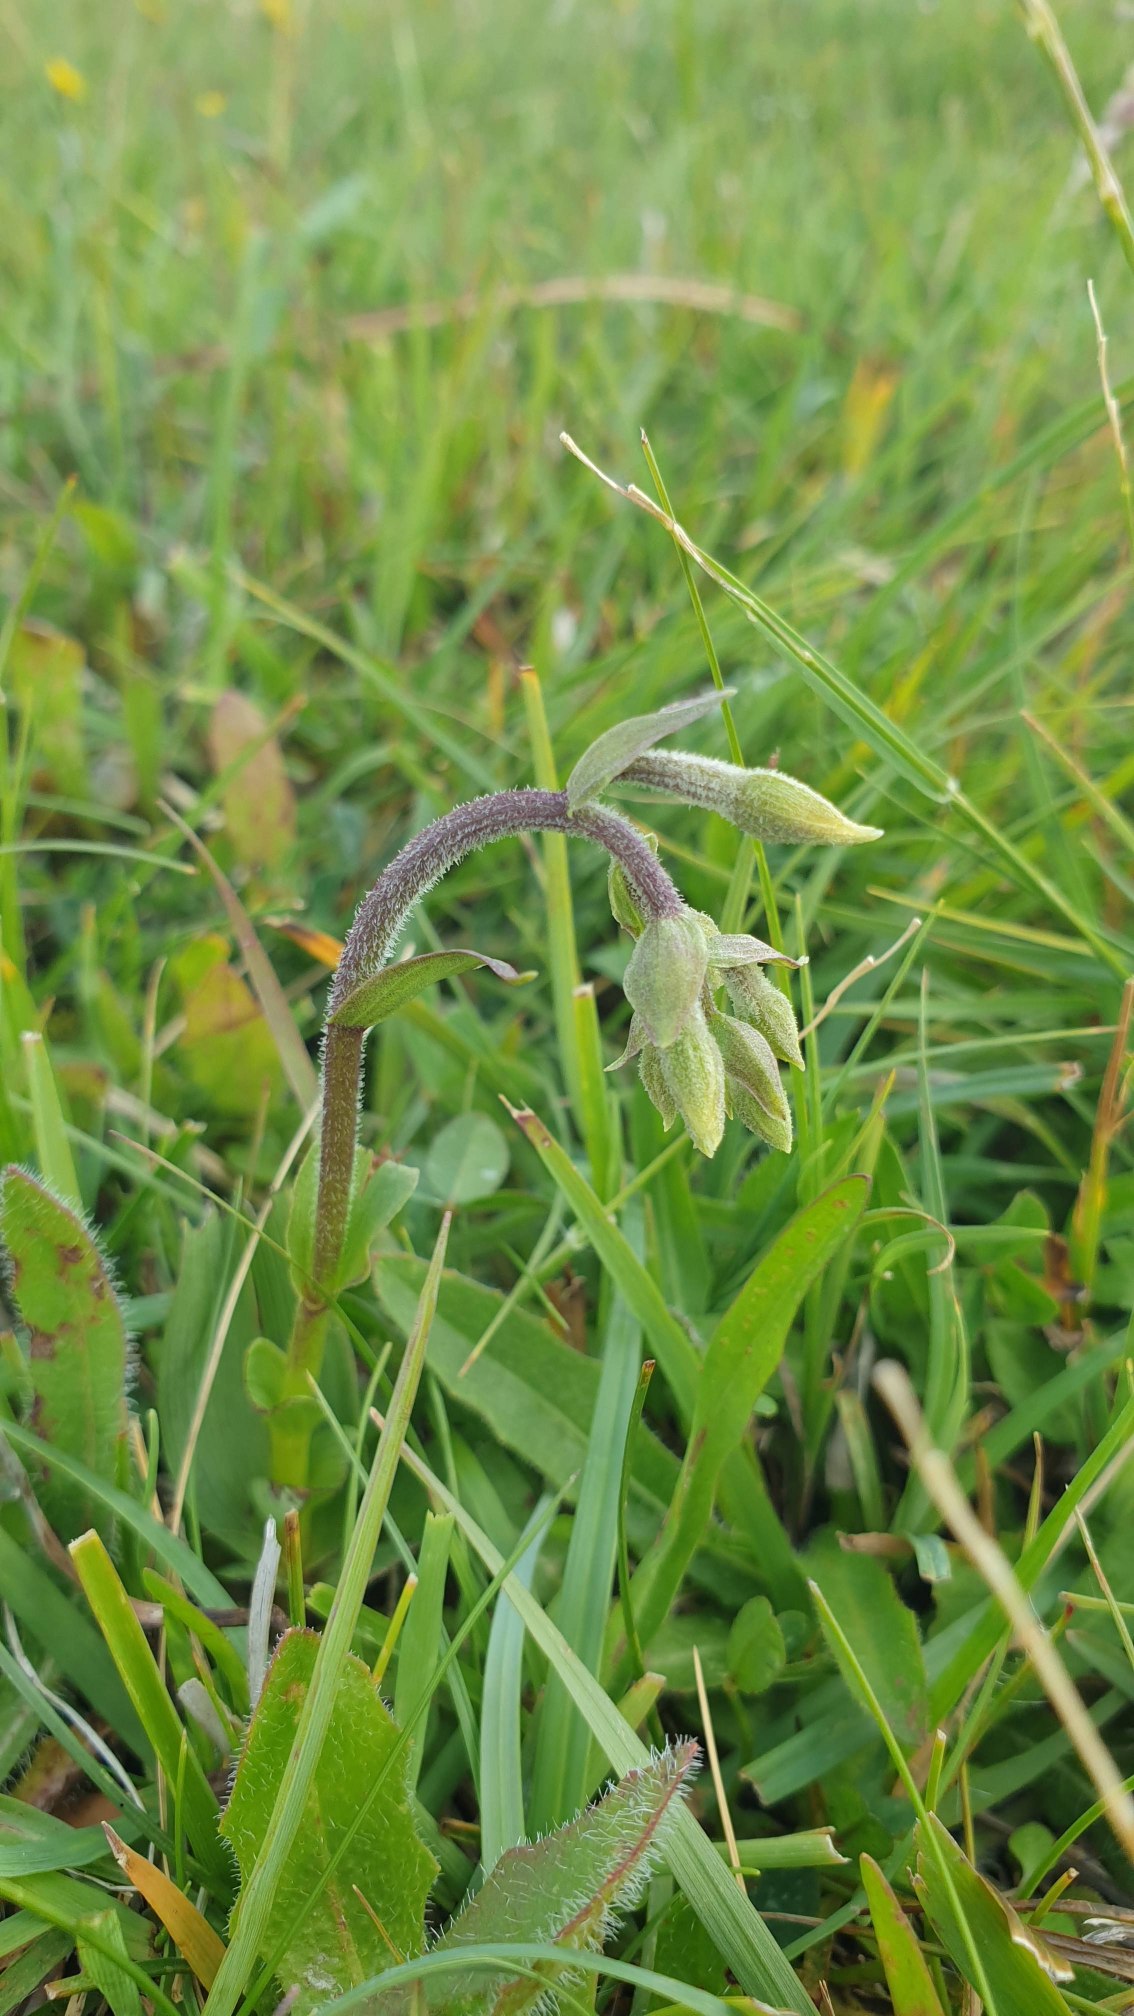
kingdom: Plantae
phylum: Tracheophyta
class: Liliopsida
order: Asparagales
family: Orchidaceae
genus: Epipactis
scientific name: Epipactis palustris
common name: Sump-hullæbe
